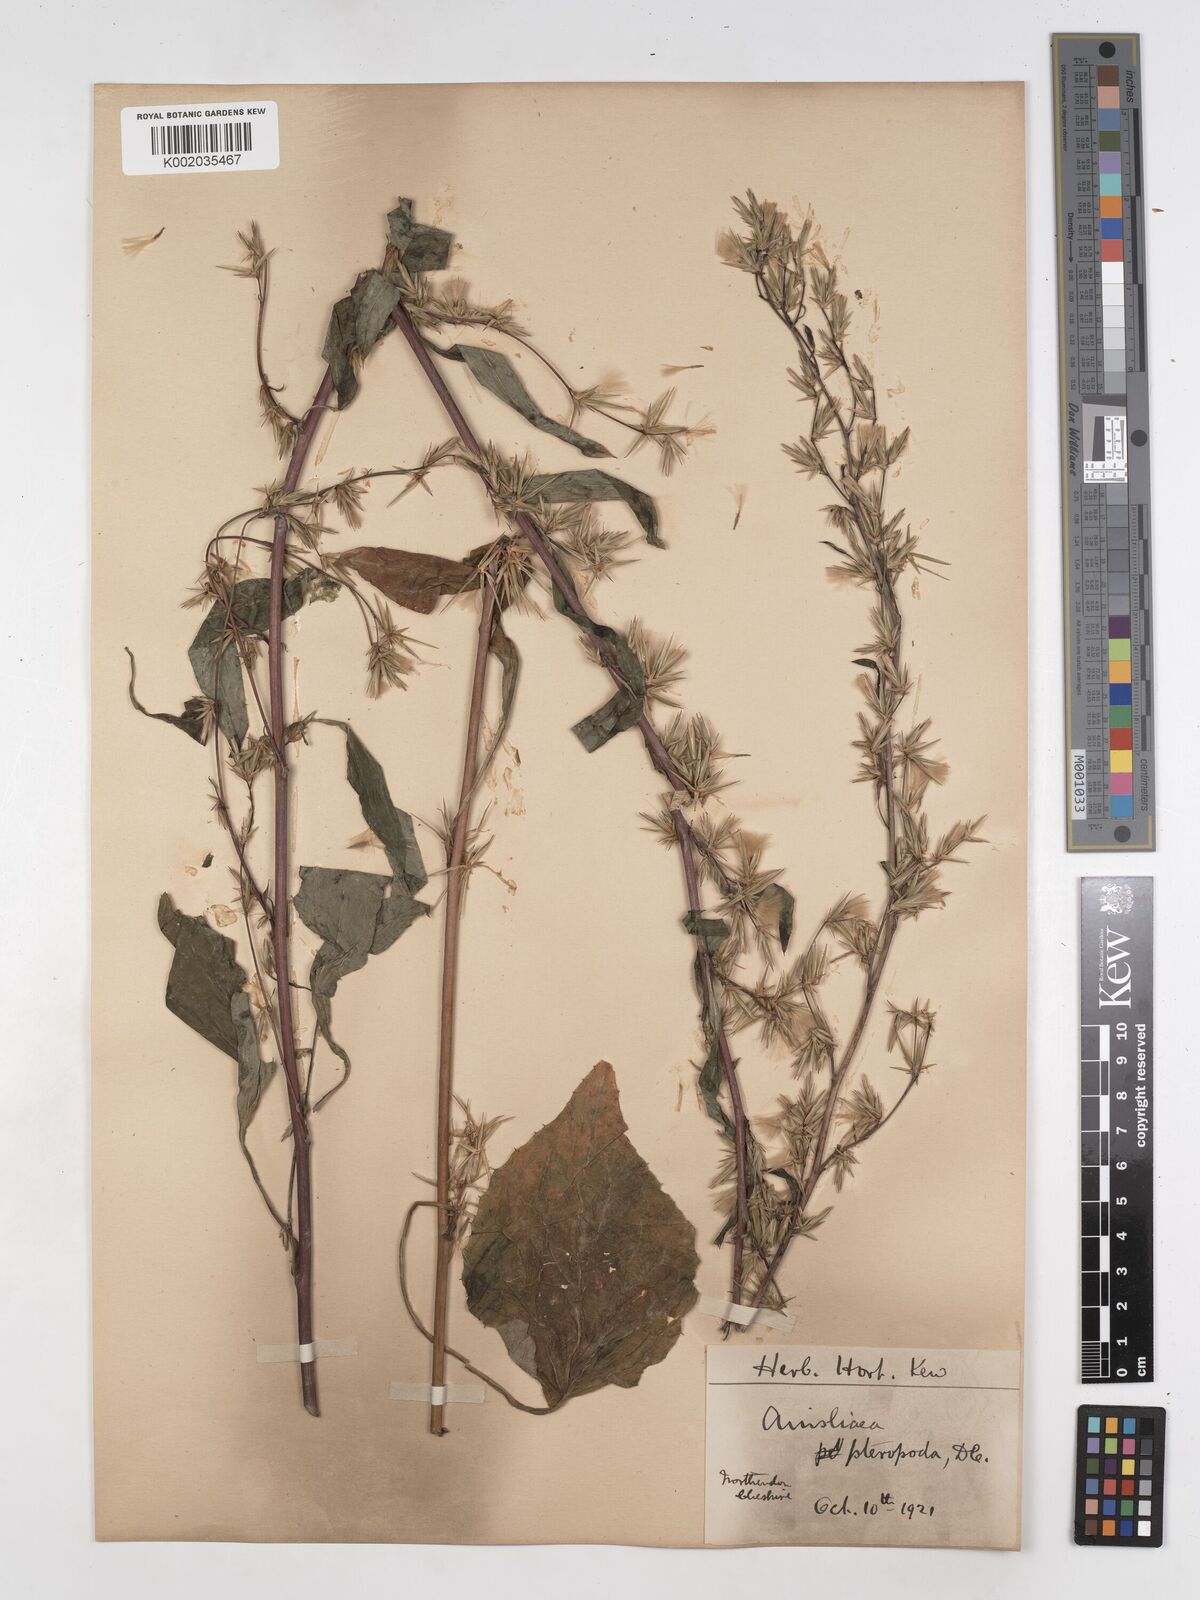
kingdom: Plantae
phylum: Tracheophyta
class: Magnoliopsida
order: Asterales
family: Asteraceae
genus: Ainsliaea
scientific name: Ainsliaea latifolia
